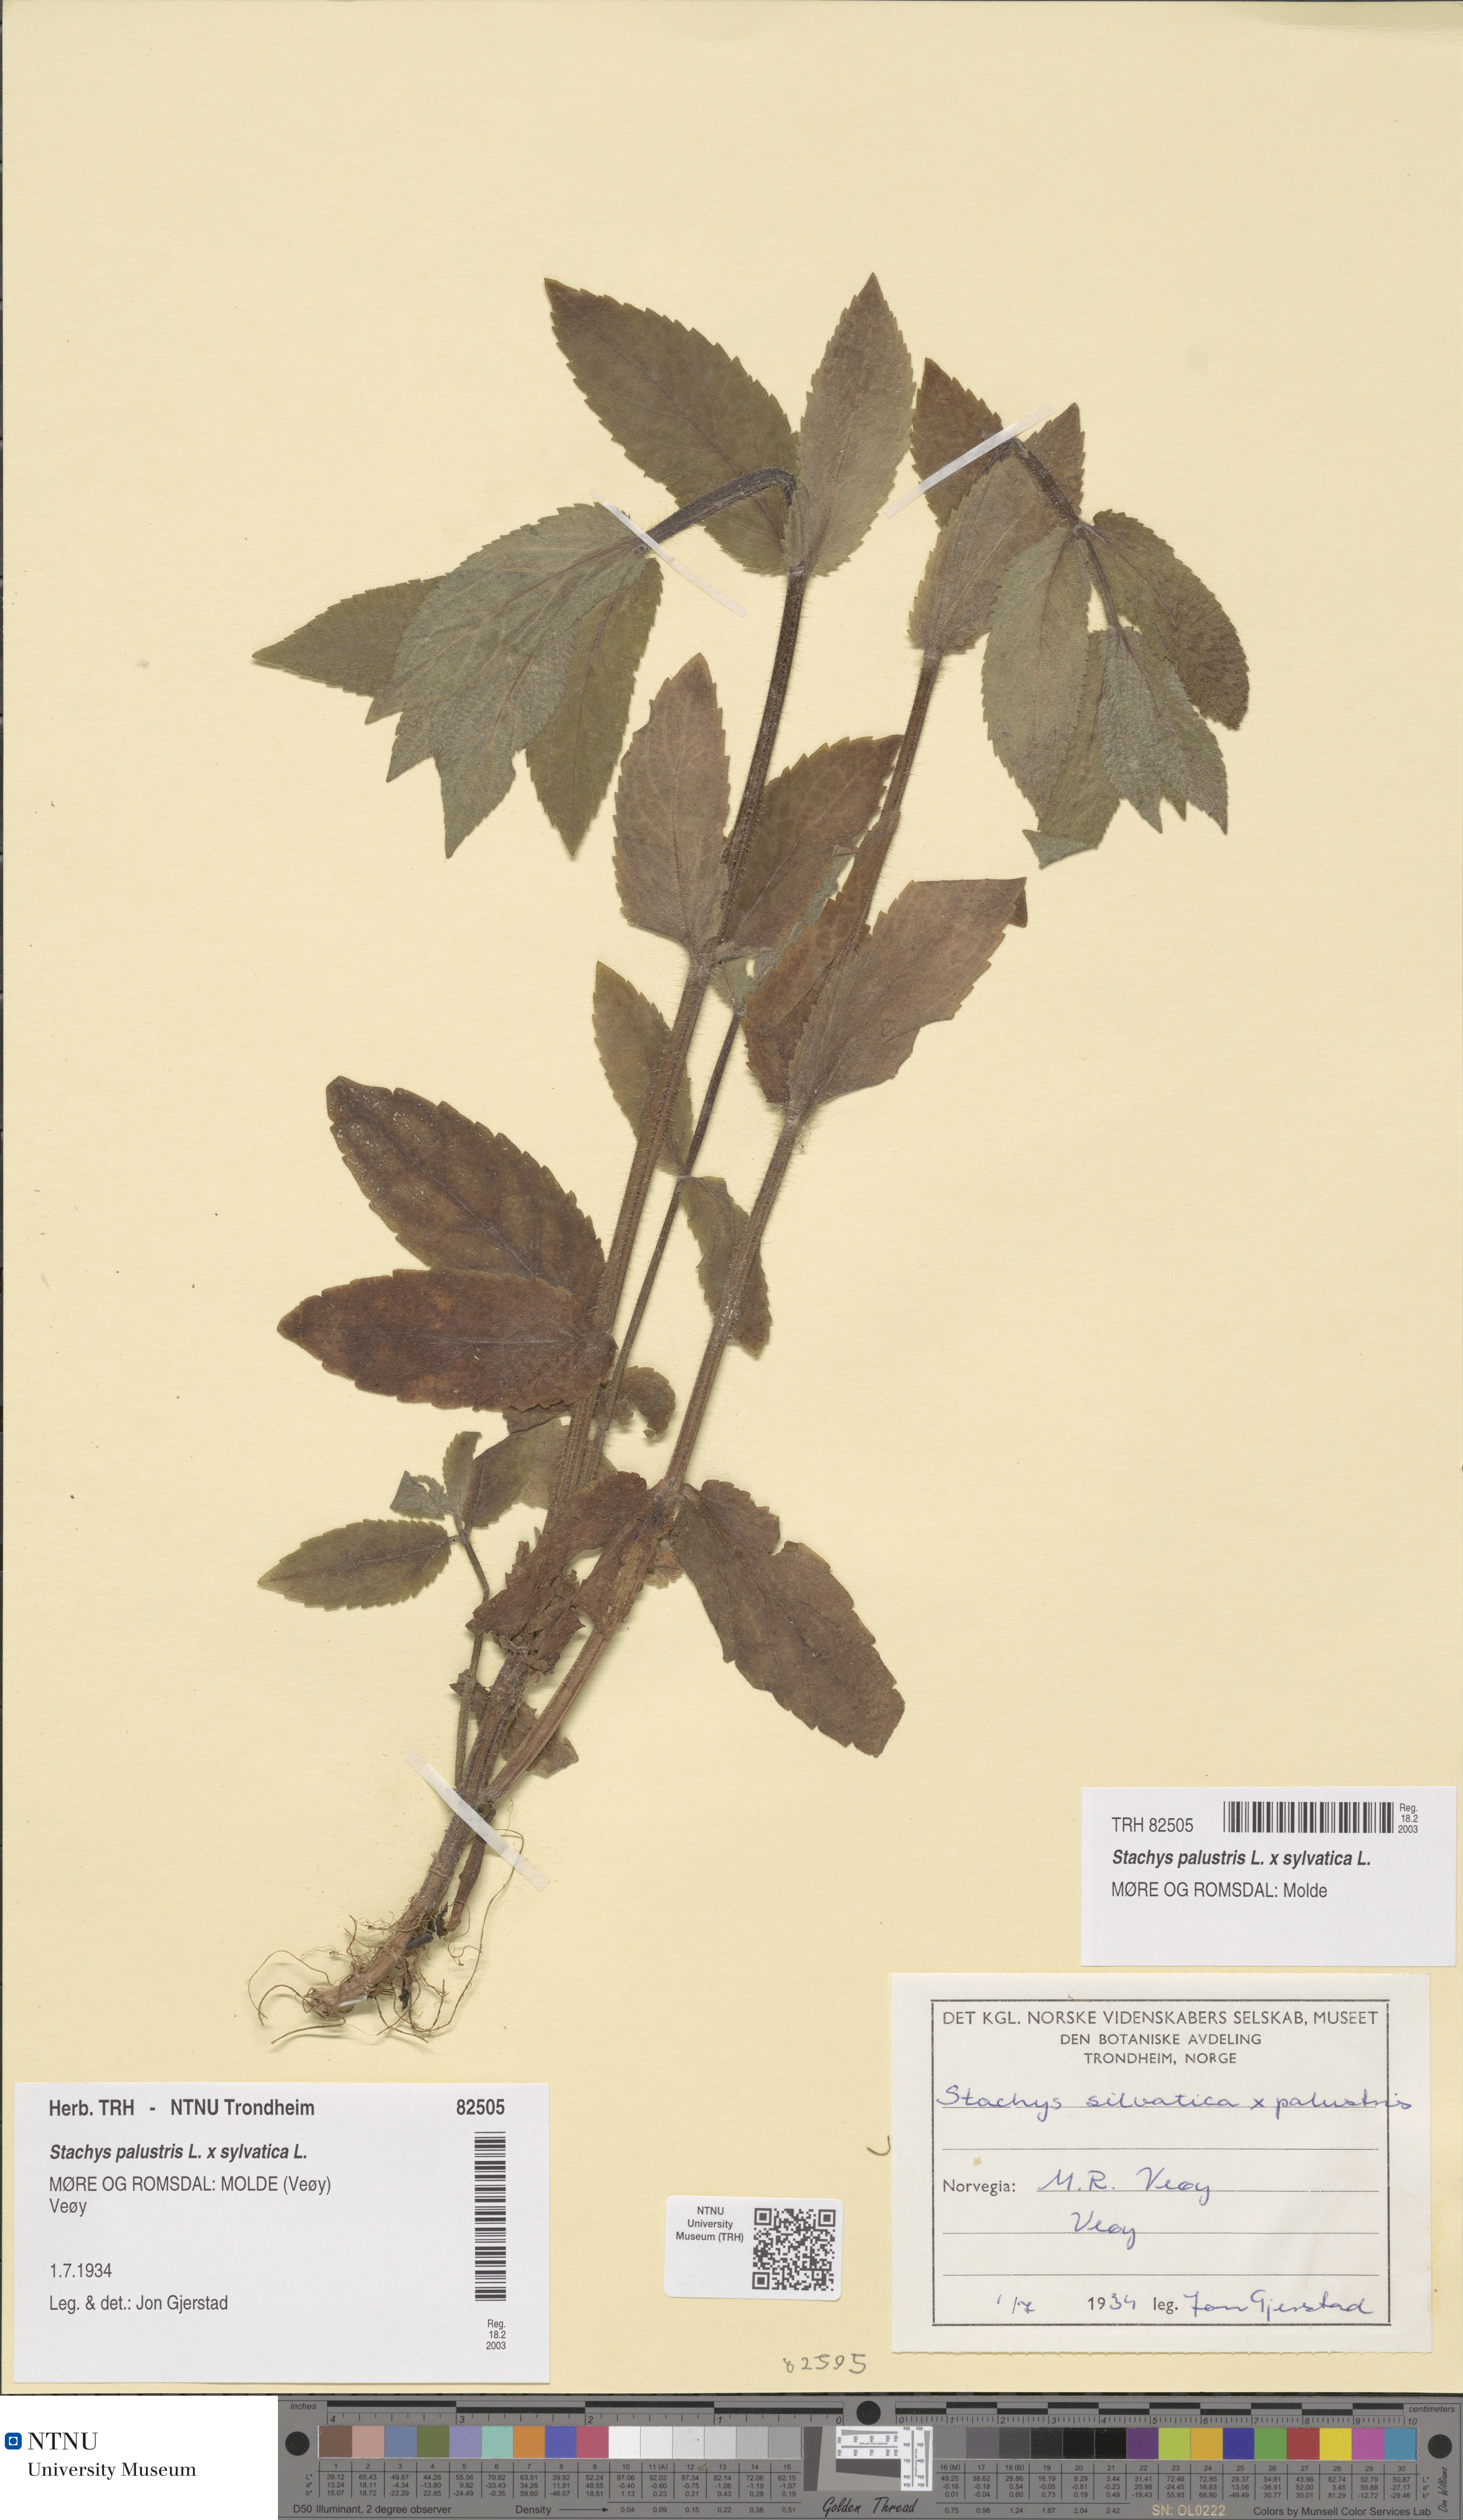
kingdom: Plantae
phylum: Tracheophyta
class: Magnoliopsida
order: Lamiales
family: Lamiaceae
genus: Stachys
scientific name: Stachys ambigua
